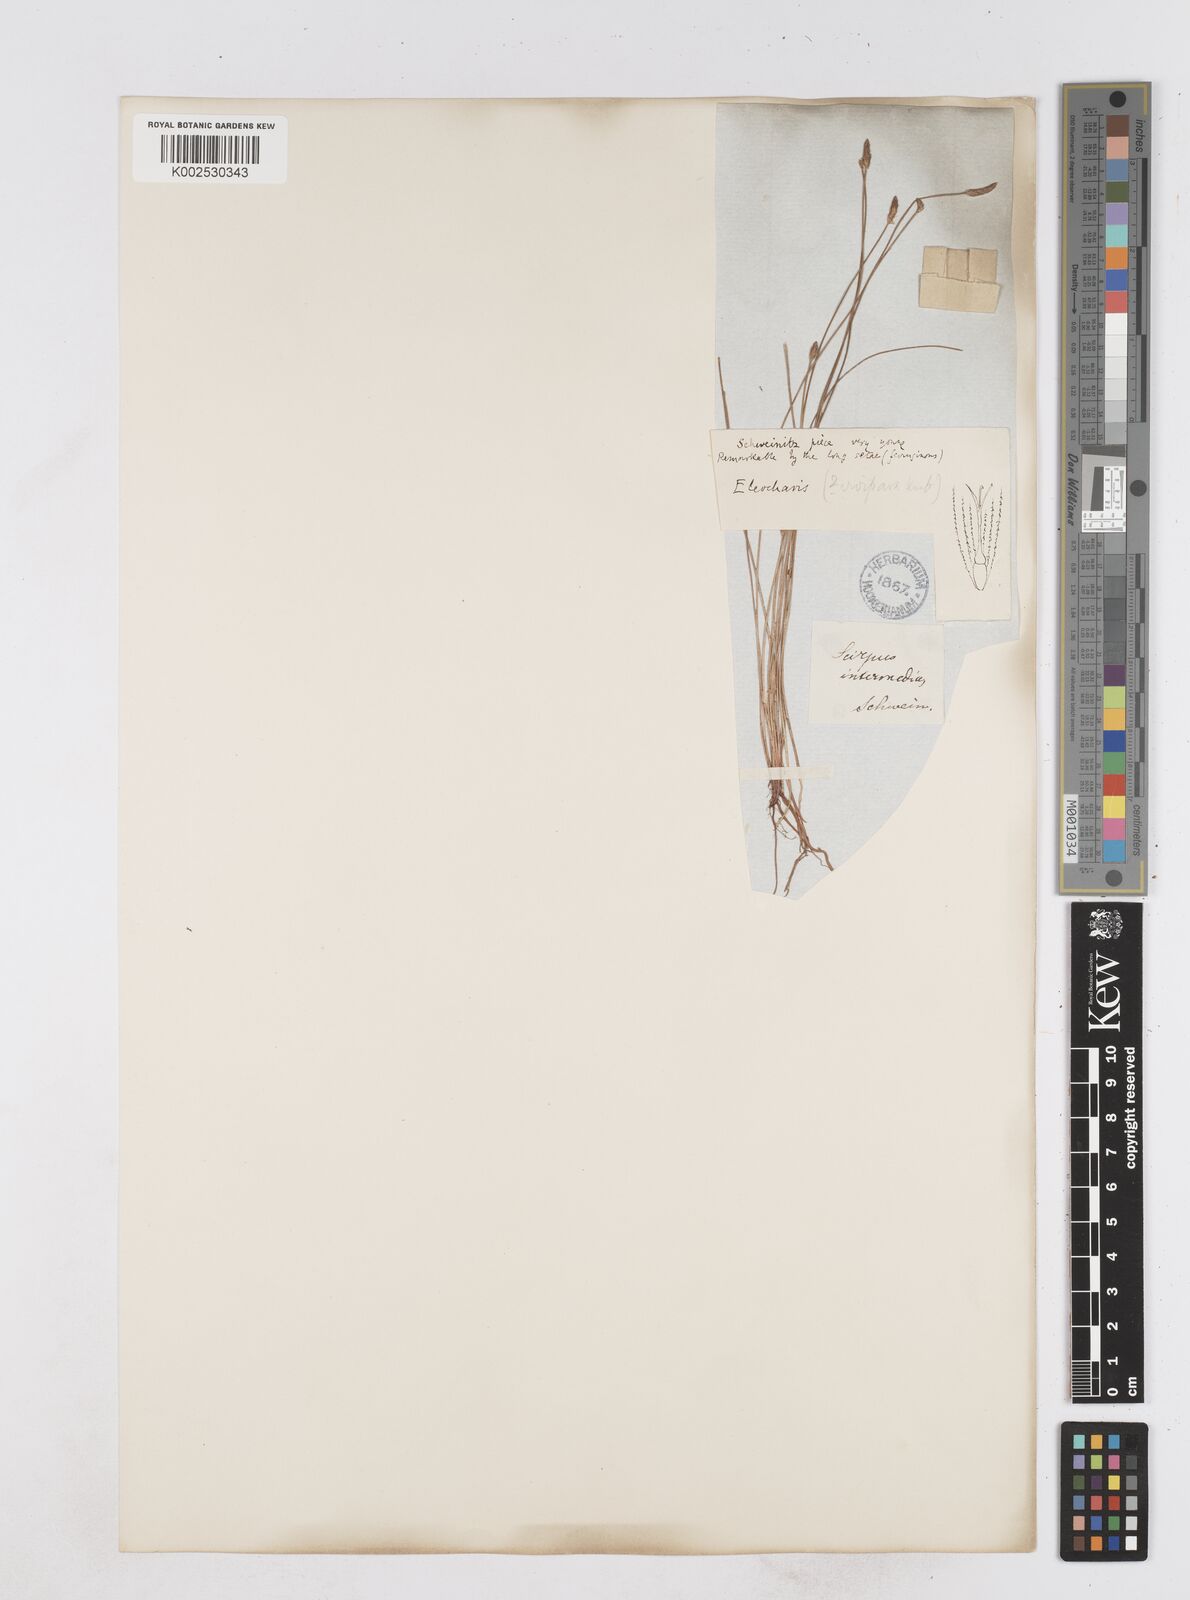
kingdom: Plantae
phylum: Tracheophyta
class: Liliopsida
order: Poales
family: Cyperaceae
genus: Eleocharis
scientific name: Eleocharis
